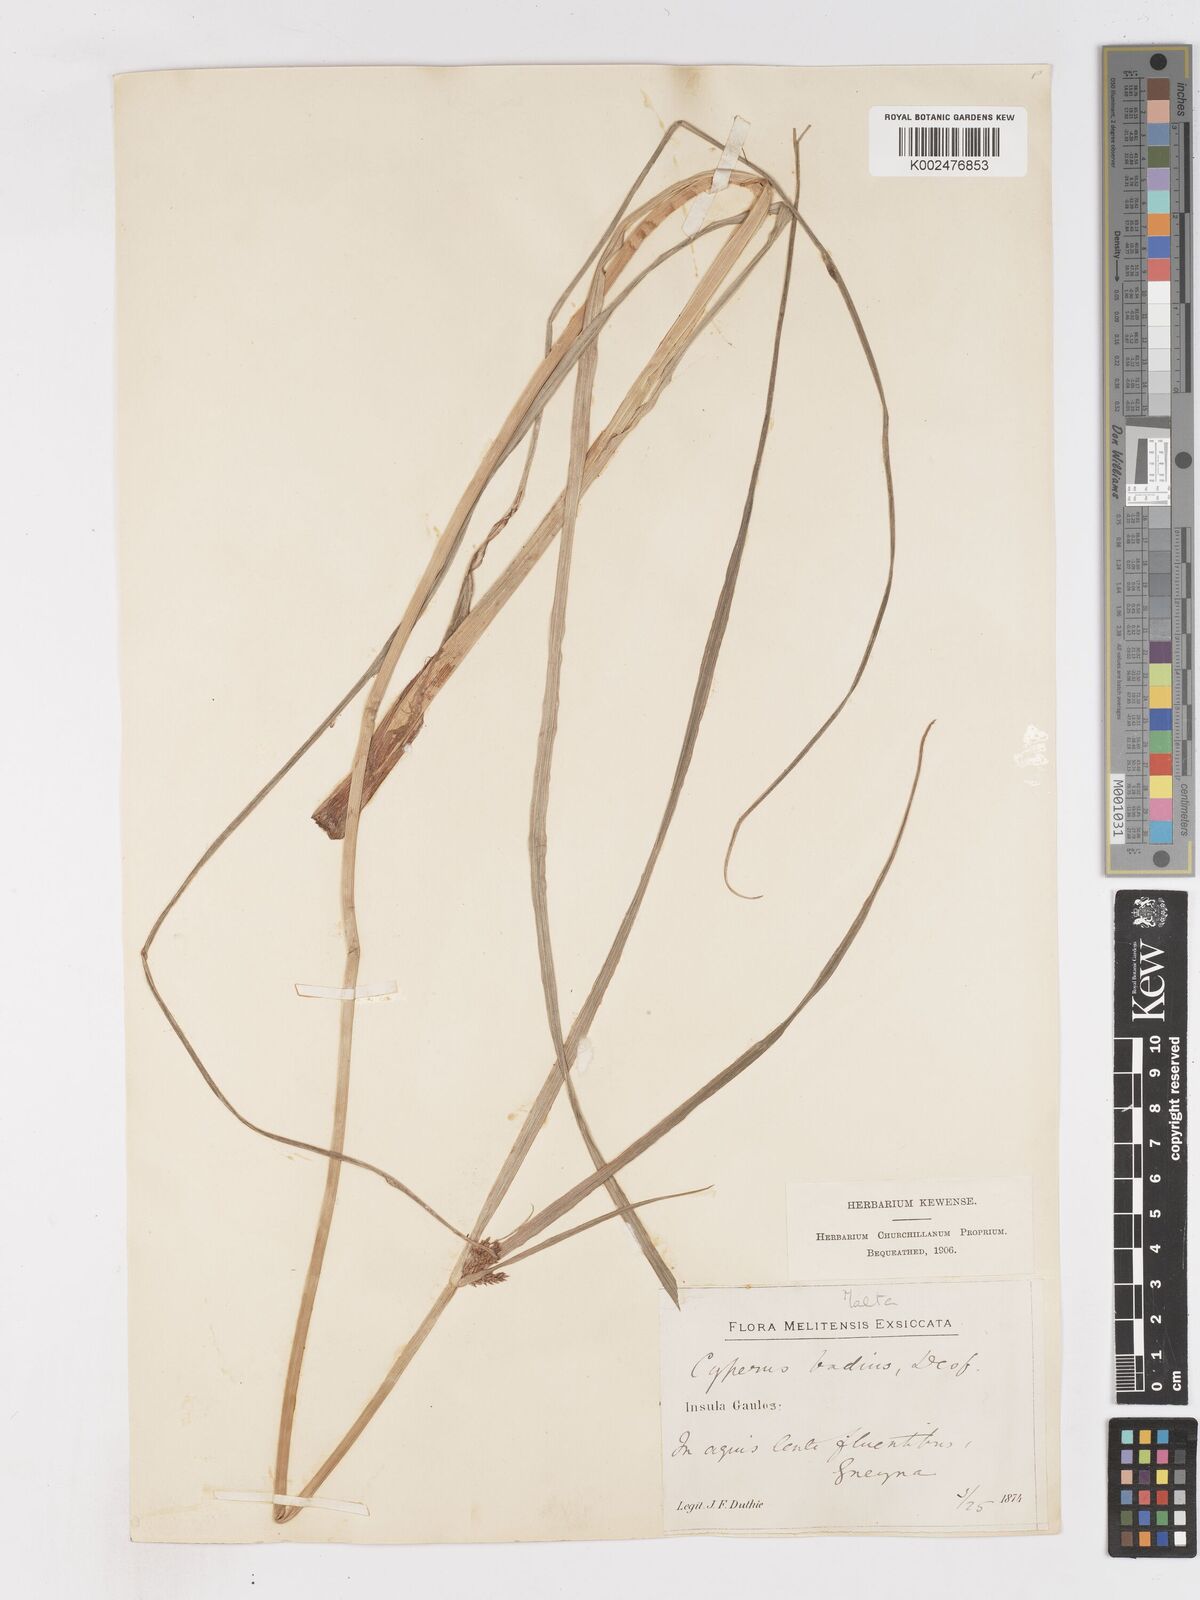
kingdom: Plantae
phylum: Tracheophyta
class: Liliopsida
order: Poales
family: Cyperaceae
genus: Cyperus
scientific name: Cyperus longus
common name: Galingale
